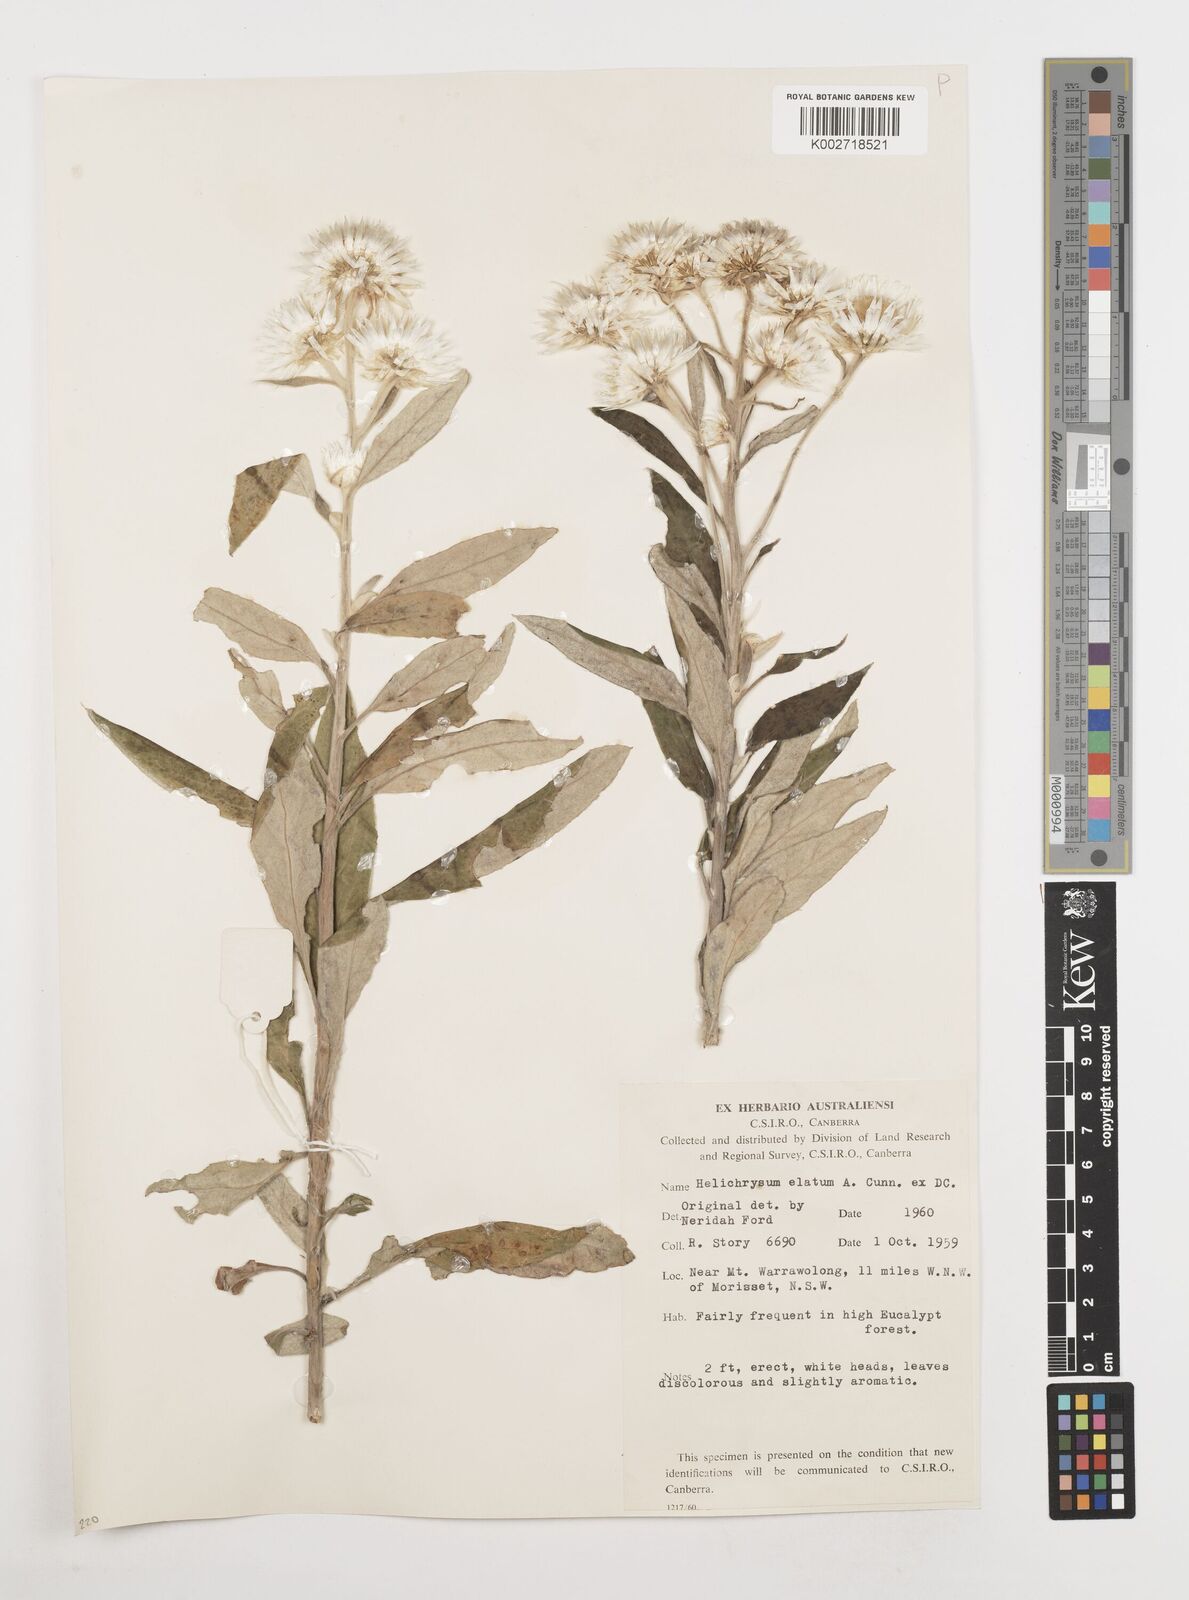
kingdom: Plantae
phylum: Tracheophyta
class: Magnoliopsida
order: Asterales
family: Asteraceae
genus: Leucozoma
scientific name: Leucozoma elatum
